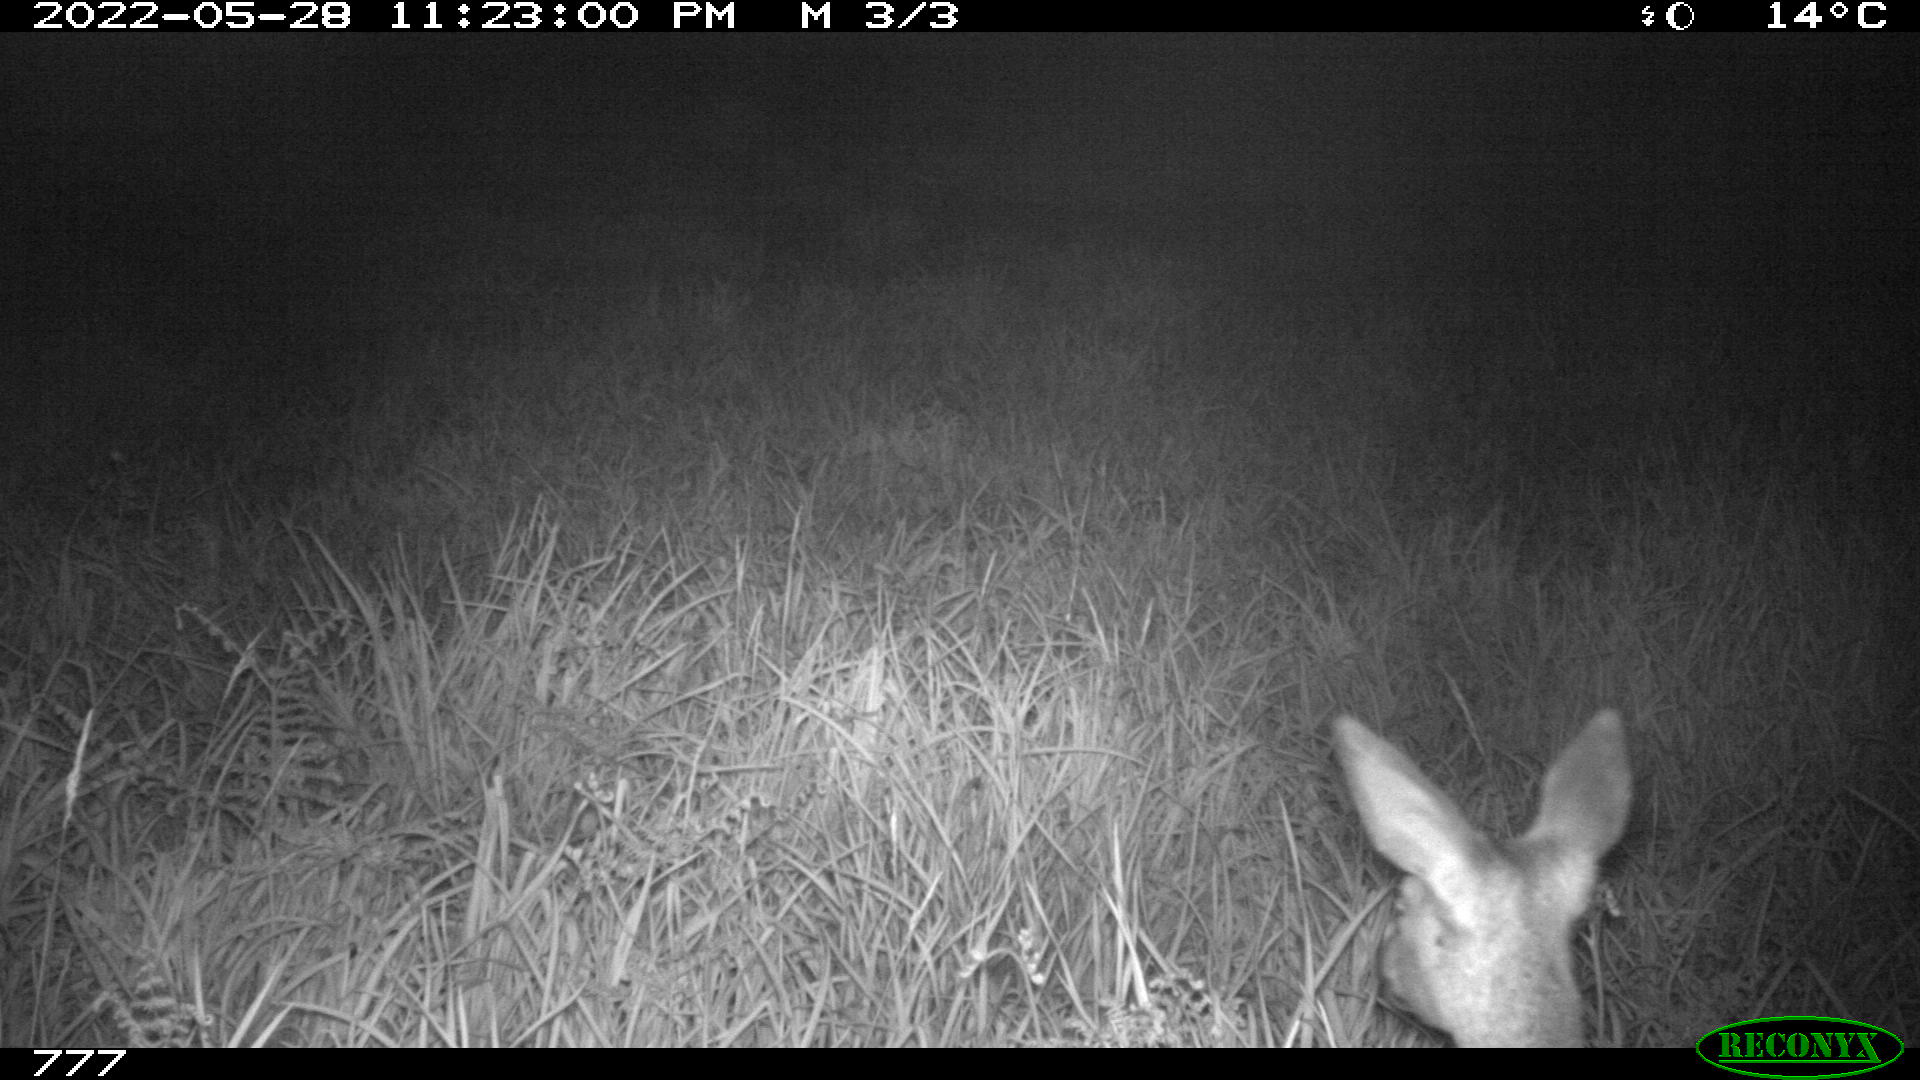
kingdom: Animalia
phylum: Chordata
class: Mammalia
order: Artiodactyla
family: Cervidae
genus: Capreolus
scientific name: Capreolus capreolus
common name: Western roe deer
